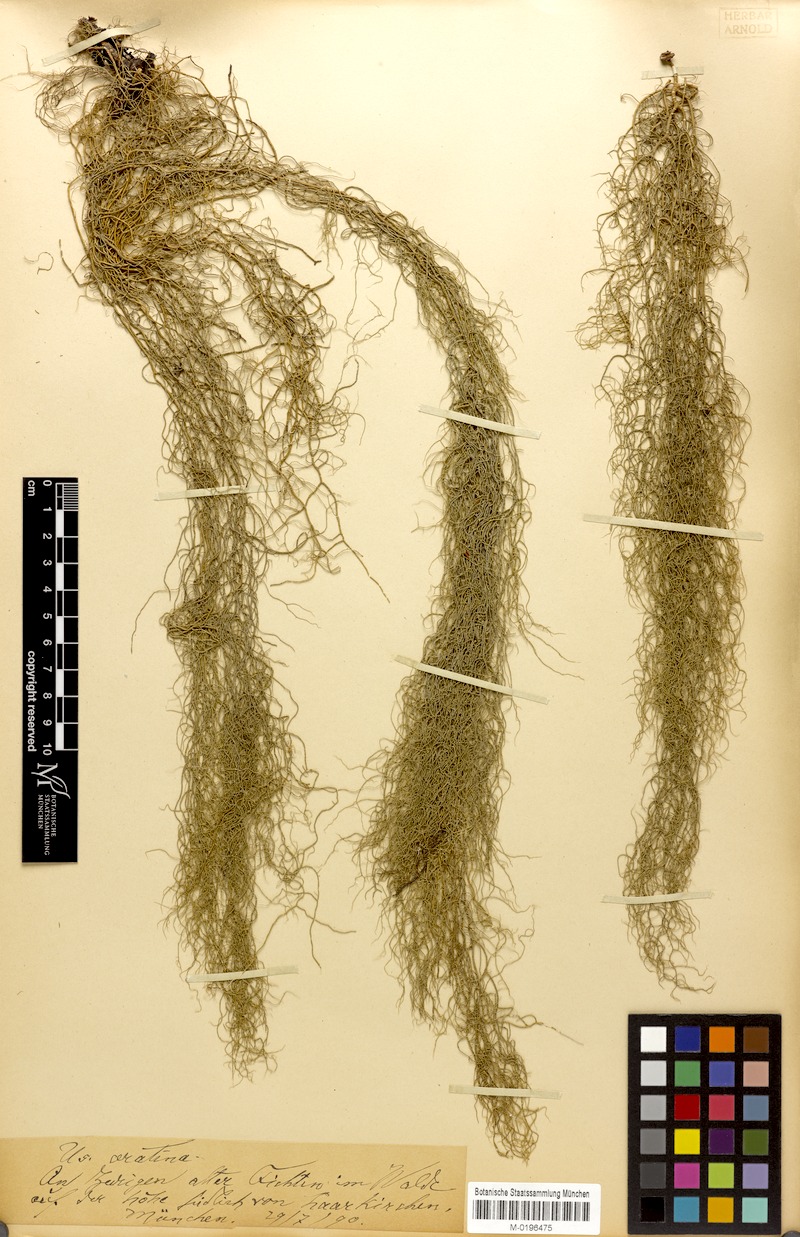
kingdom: Fungi
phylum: Ascomycota
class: Lecanoromycetes
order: Lecanorales
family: Parmeliaceae
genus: Usnea
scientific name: Usnea ceratina
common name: Warty beard lichen
